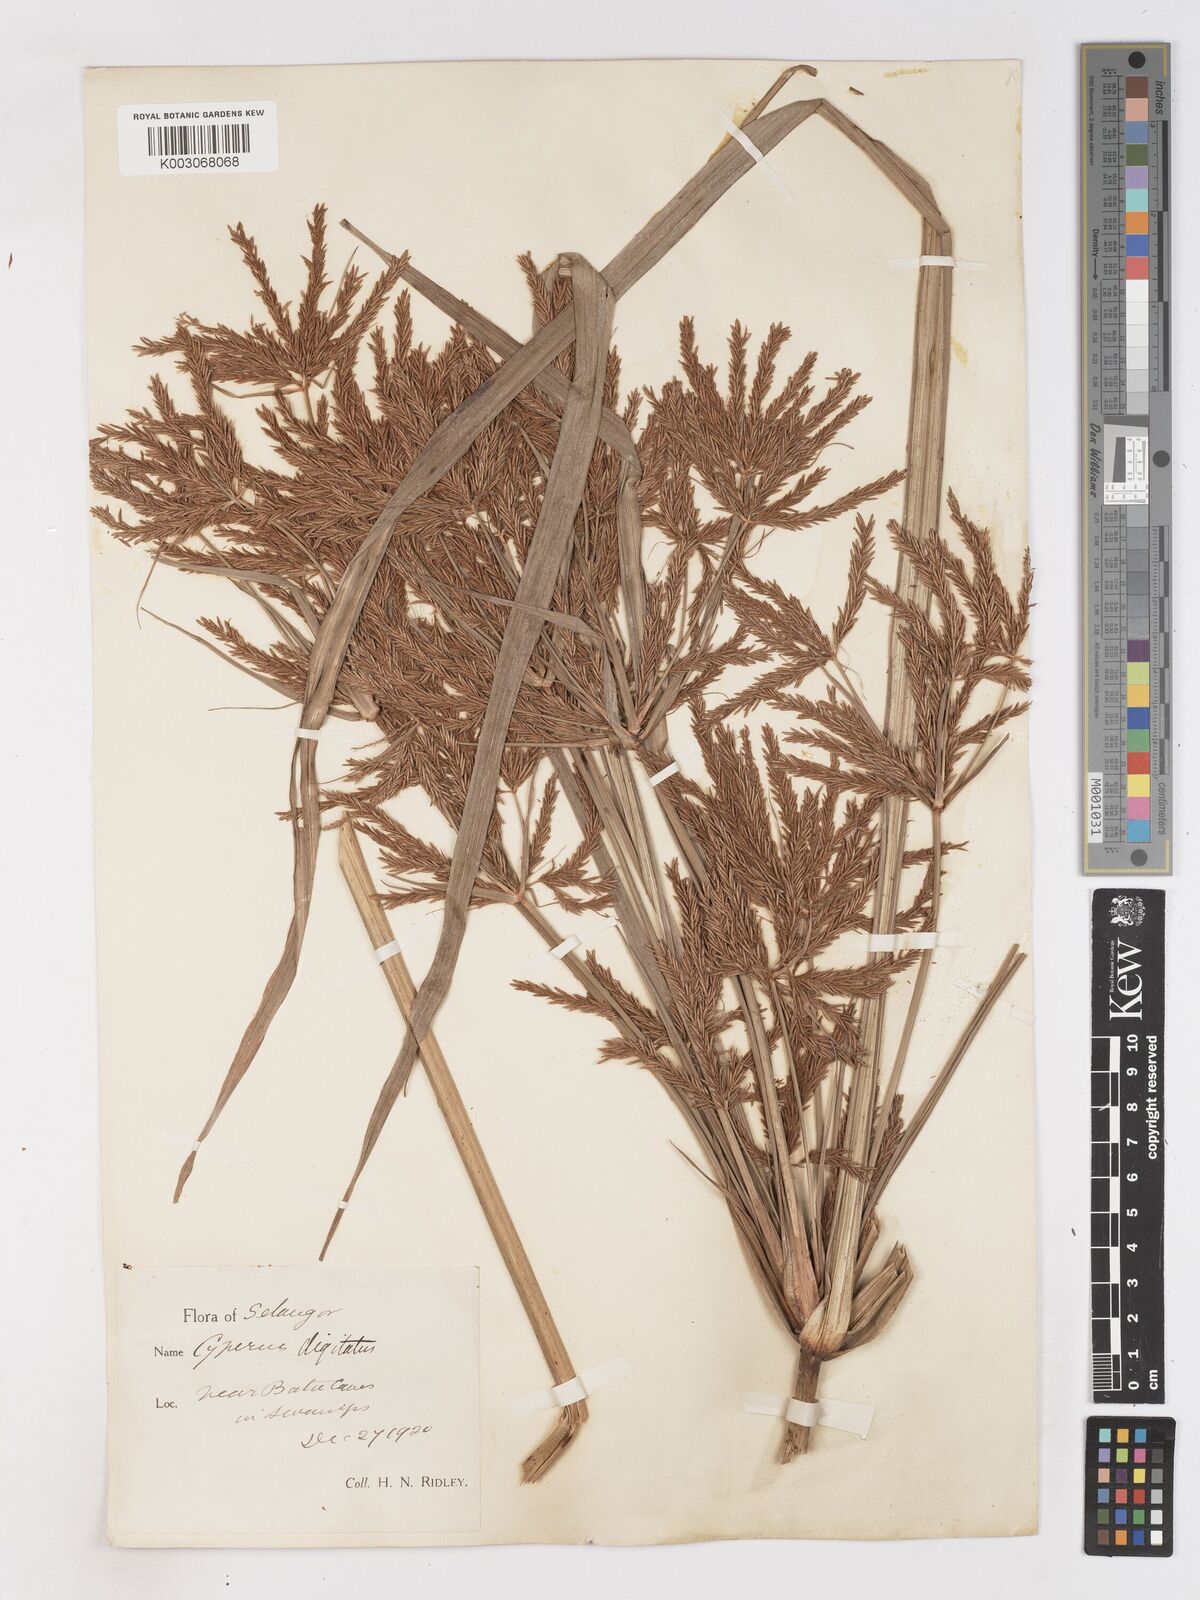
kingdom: Plantae
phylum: Tracheophyta
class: Liliopsida
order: Poales
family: Cyperaceae
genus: Cyperus
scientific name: Cyperus digitatus
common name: Finger flatsedge
